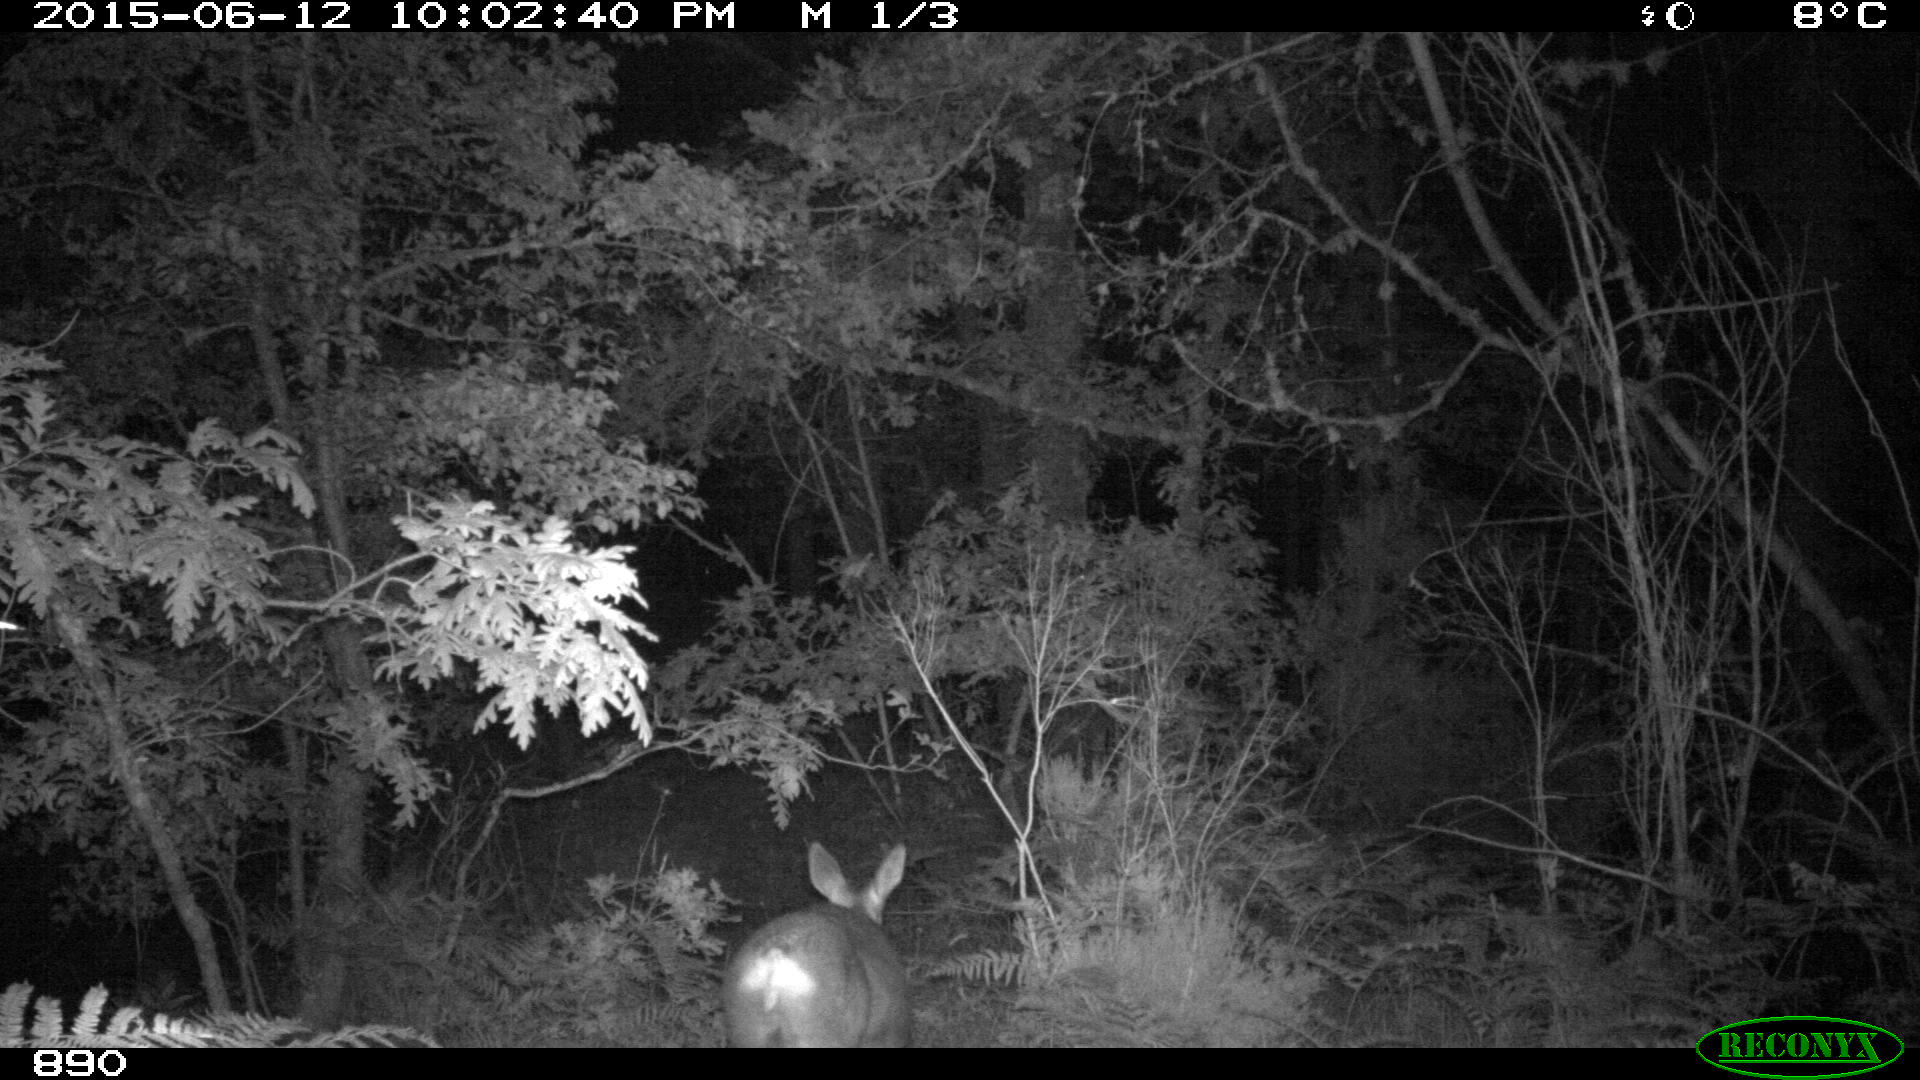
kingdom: Animalia
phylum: Chordata
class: Mammalia
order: Artiodactyla
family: Cervidae
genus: Capreolus
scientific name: Capreolus capreolus
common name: Western roe deer
